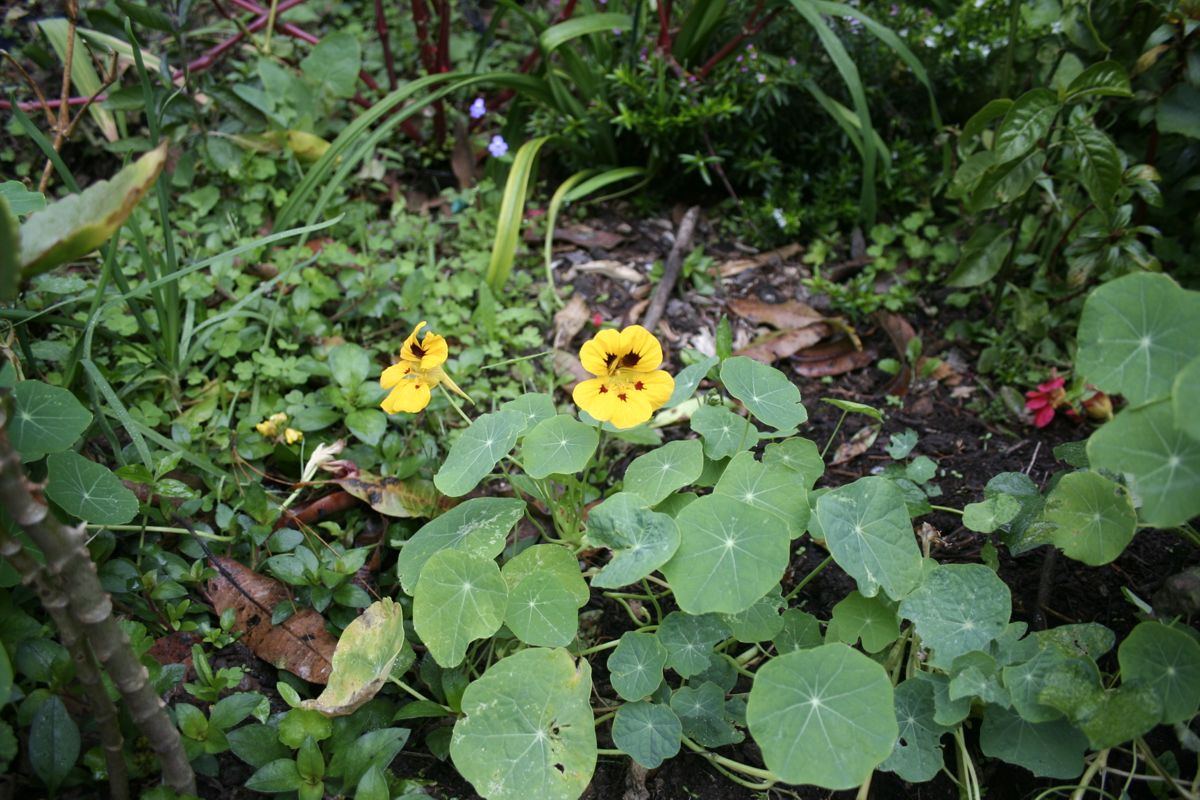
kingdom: Plantae
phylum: Tracheophyta
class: Magnoliopsida
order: Brassicales
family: Tropaeolaceae
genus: Tropaeolum
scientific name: Tropaeolum majus
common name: Nasturtium
